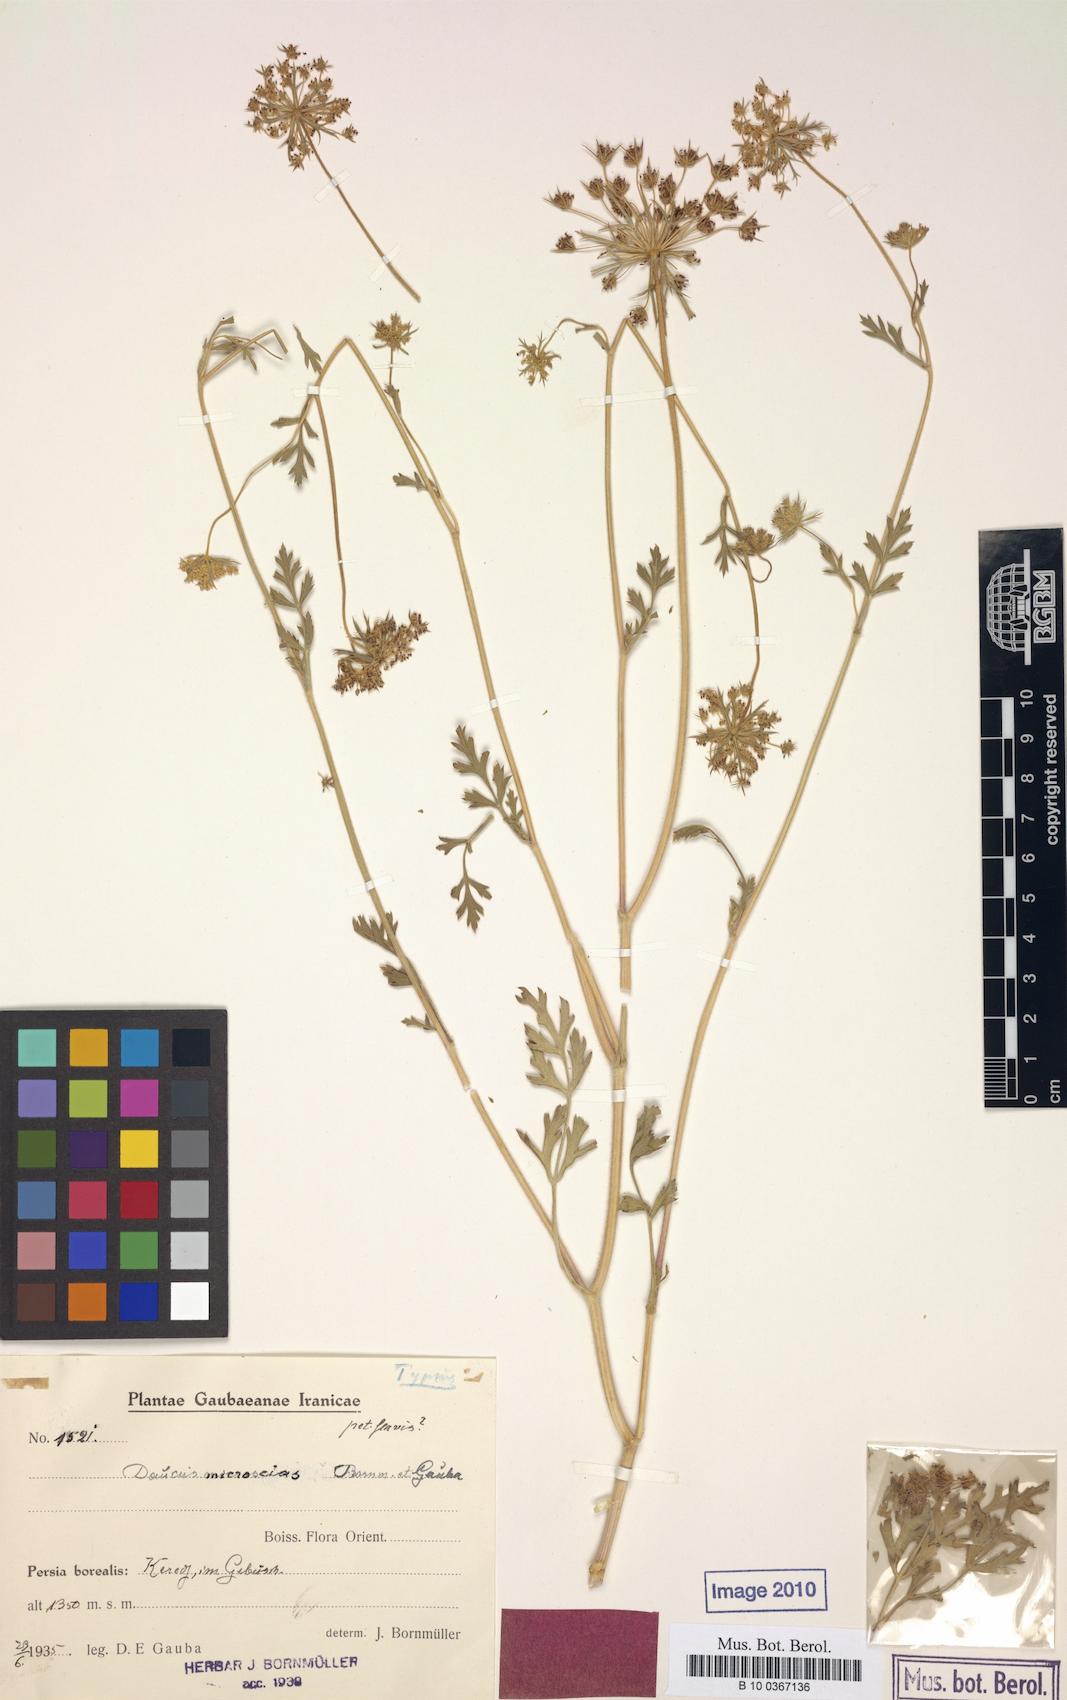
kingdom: Plantae
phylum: Tracheophyta
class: Magnoliopsida
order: Apiales
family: Apiaceae
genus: Daucus
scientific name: Daucus microscias
